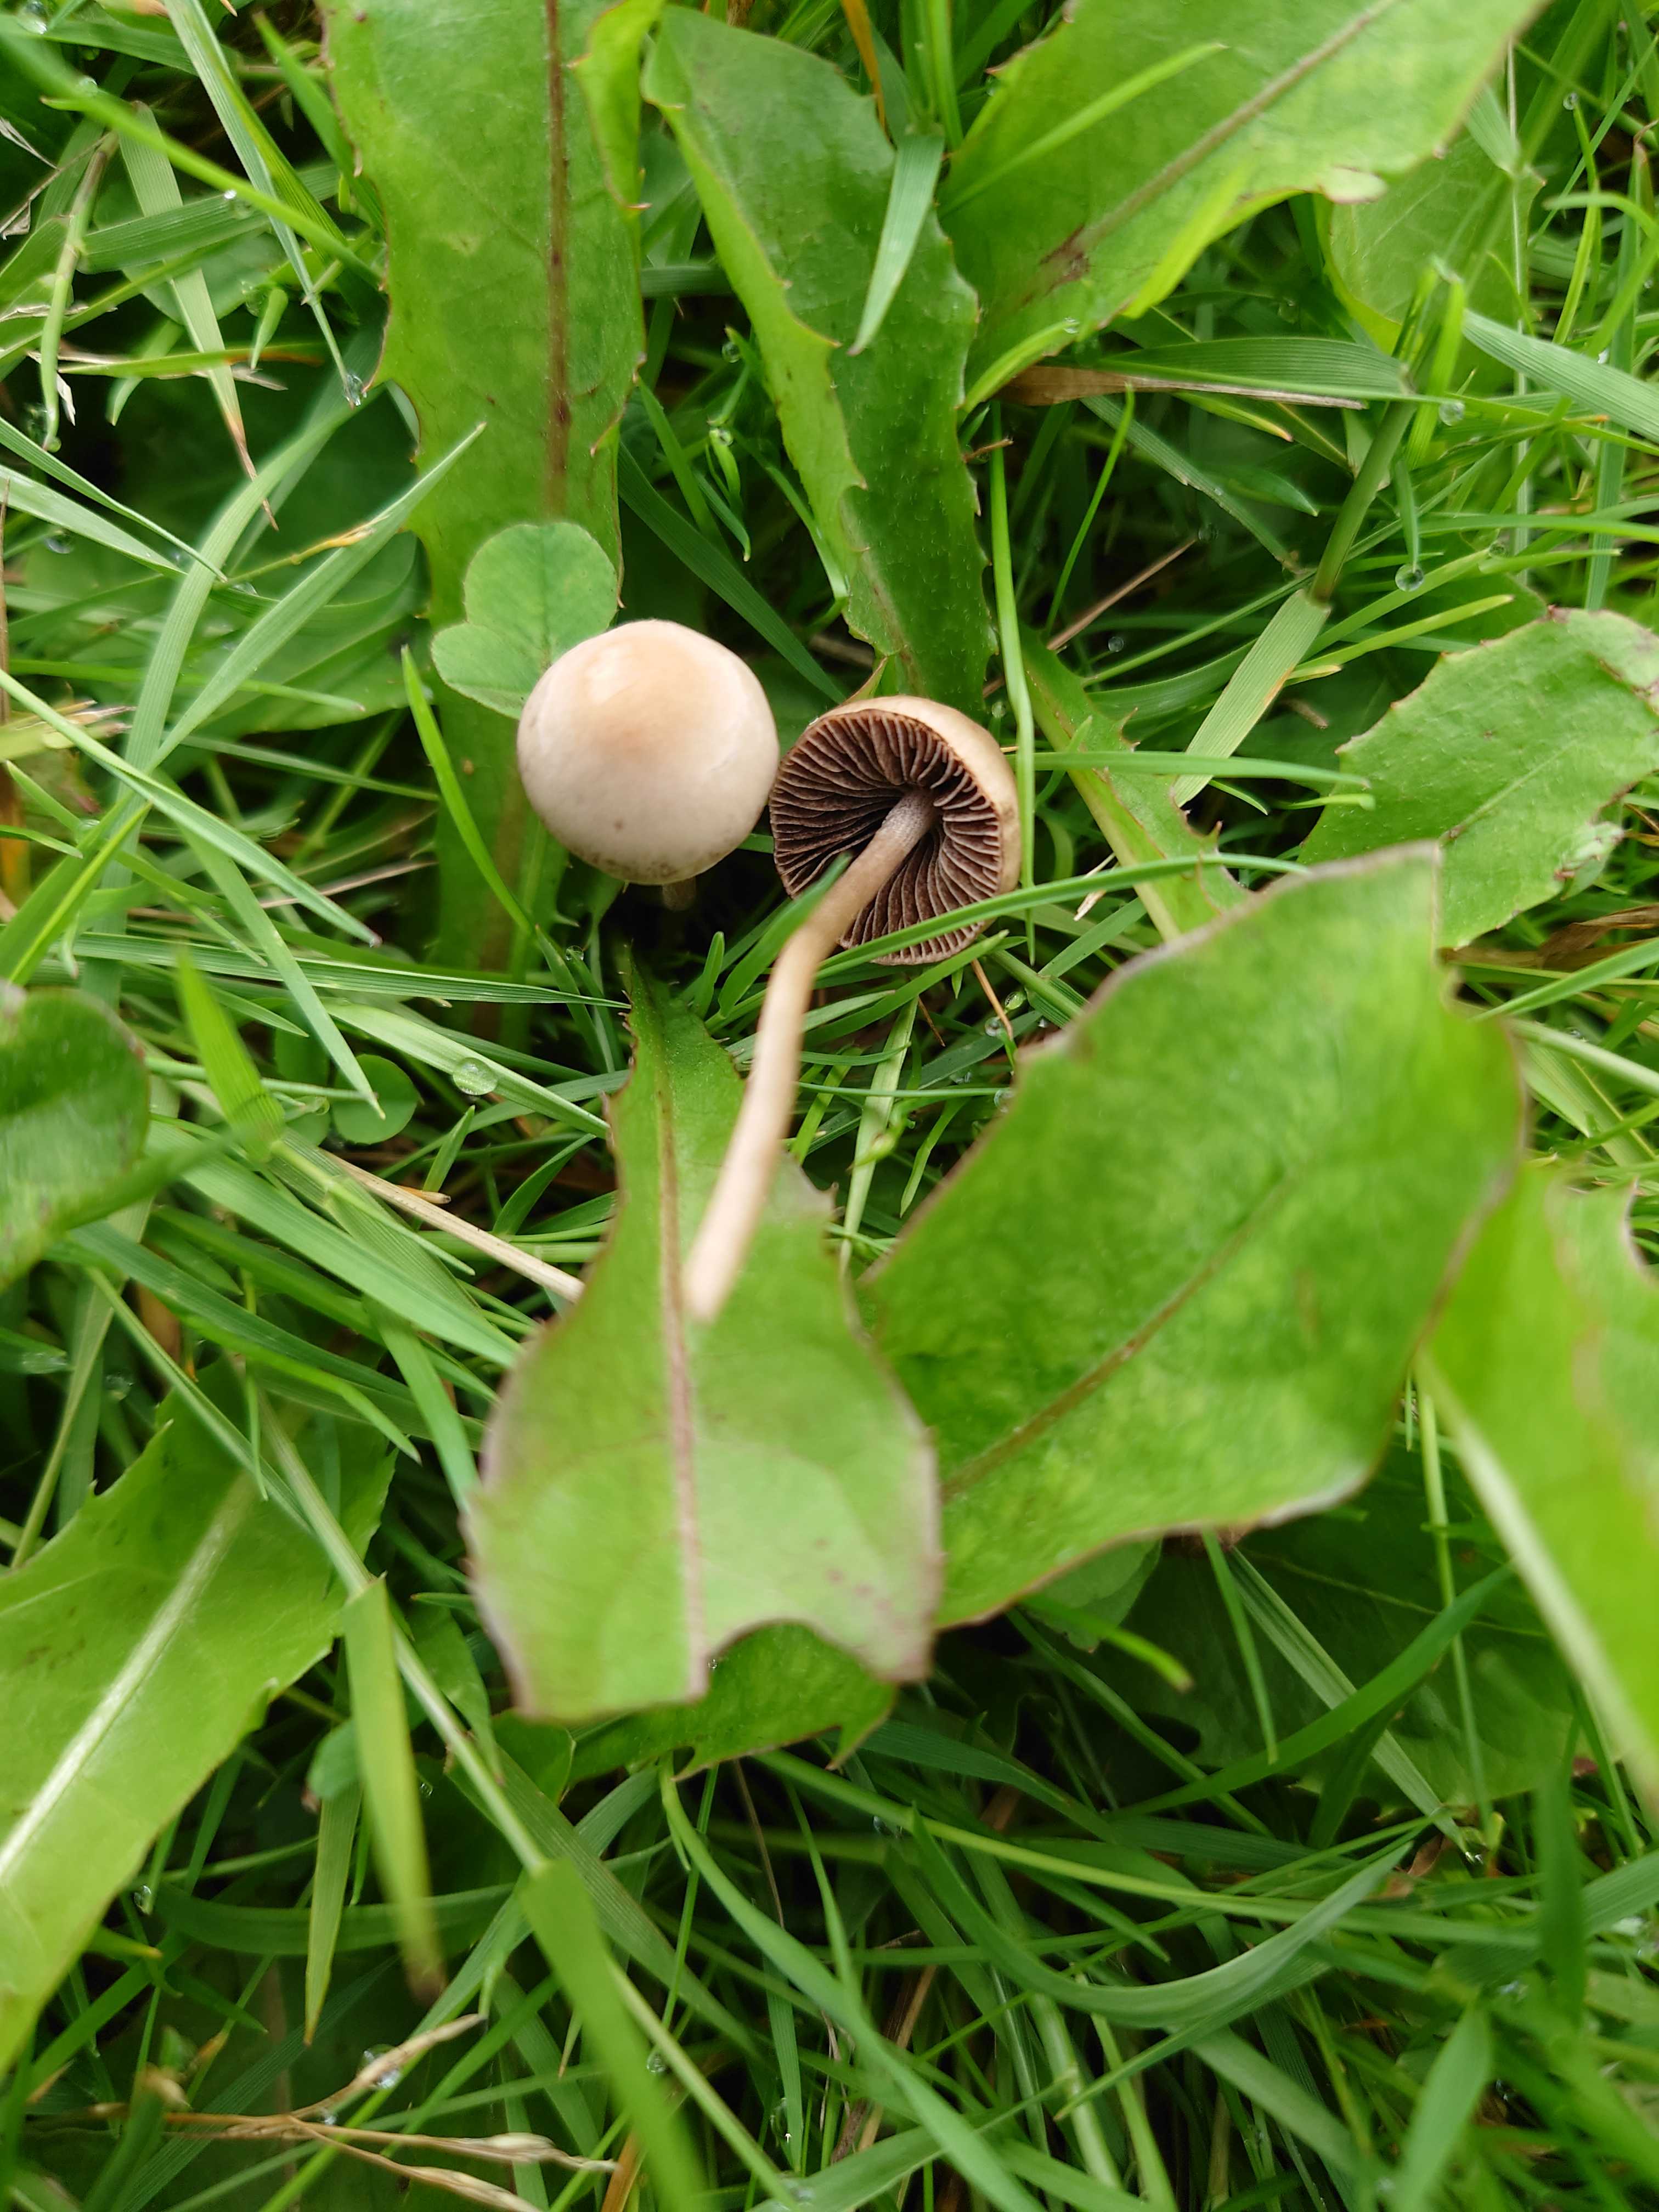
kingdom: Fungi
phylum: Basidiomycota
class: Agaricomycetes
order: Agaricales
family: Bolbitiaceae
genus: Panaeolina
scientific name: Panaeolina foenisecii
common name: høslætsvamp
